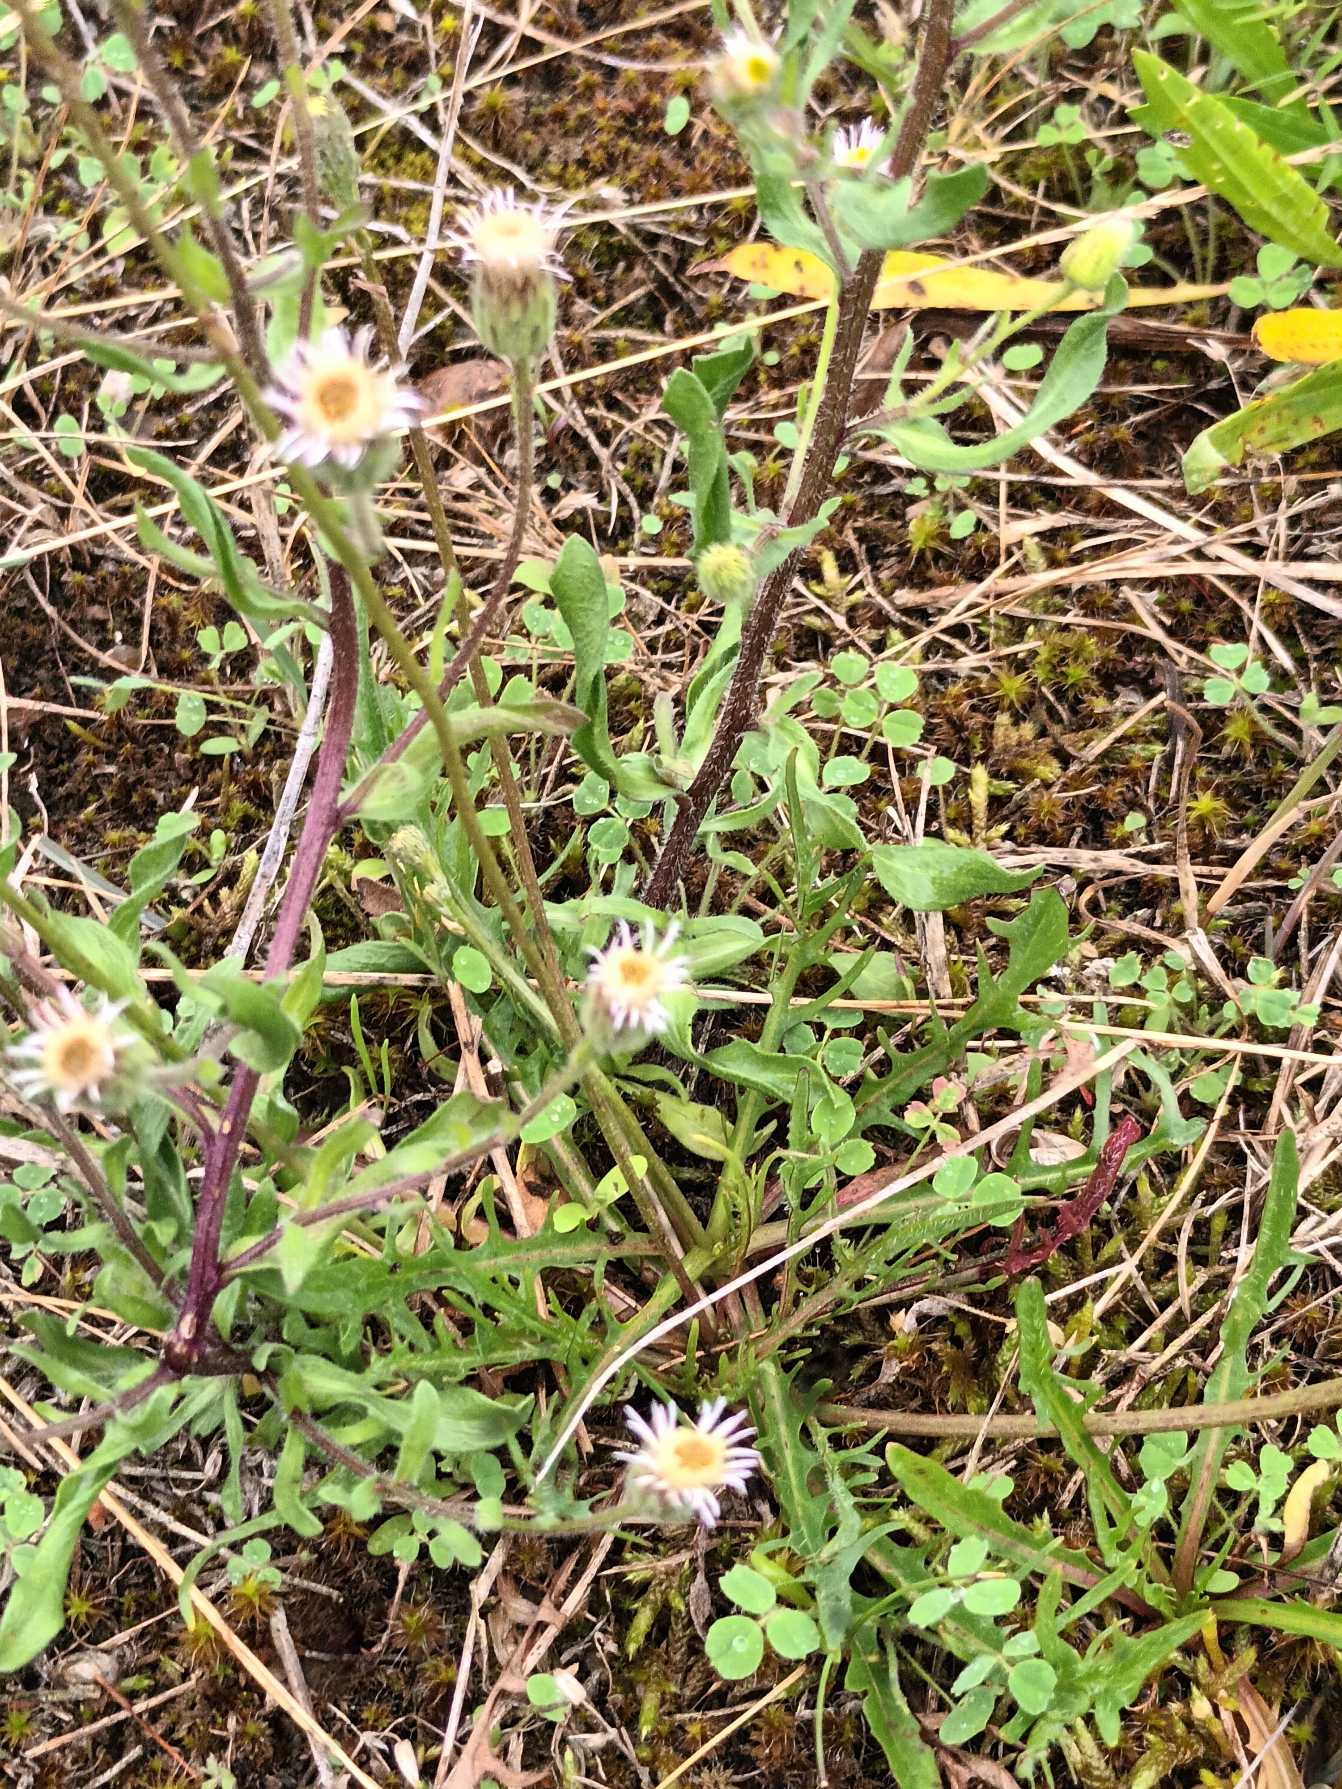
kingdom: Plantae
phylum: Tracheophyta
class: Magnoliopsida
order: Asterales
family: Asteraceae
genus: Erigeron
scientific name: Erigeron muralis
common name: Vreden bakkestjerne
